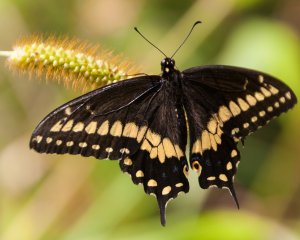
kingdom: Animalia
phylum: Arthropoda
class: Insecta
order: Lepidoptera
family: Papilionidae
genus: Papilio
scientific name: Papilio polyxenes
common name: Black Swallowtail
